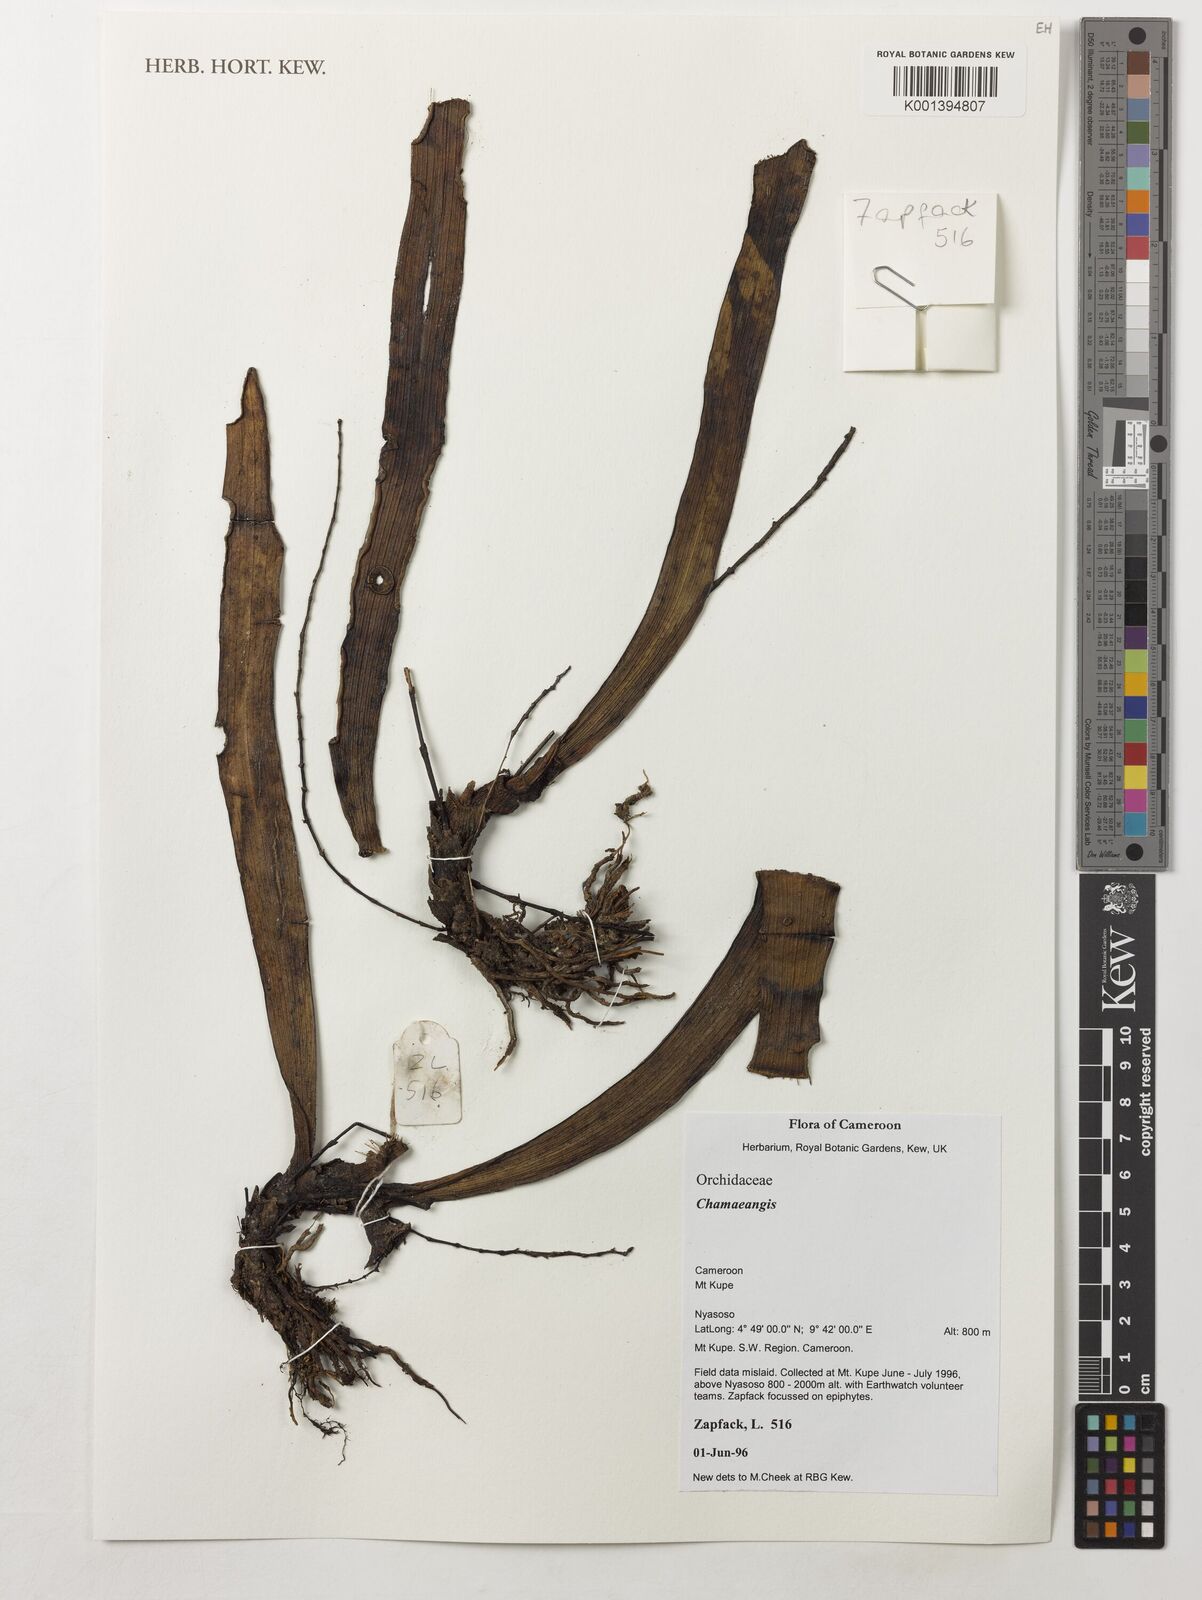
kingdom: Plantae
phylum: Tracheophyta
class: Liliopsida
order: Asparagales
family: Orchidaceae
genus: Diaphananthe
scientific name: Diaphananthe
